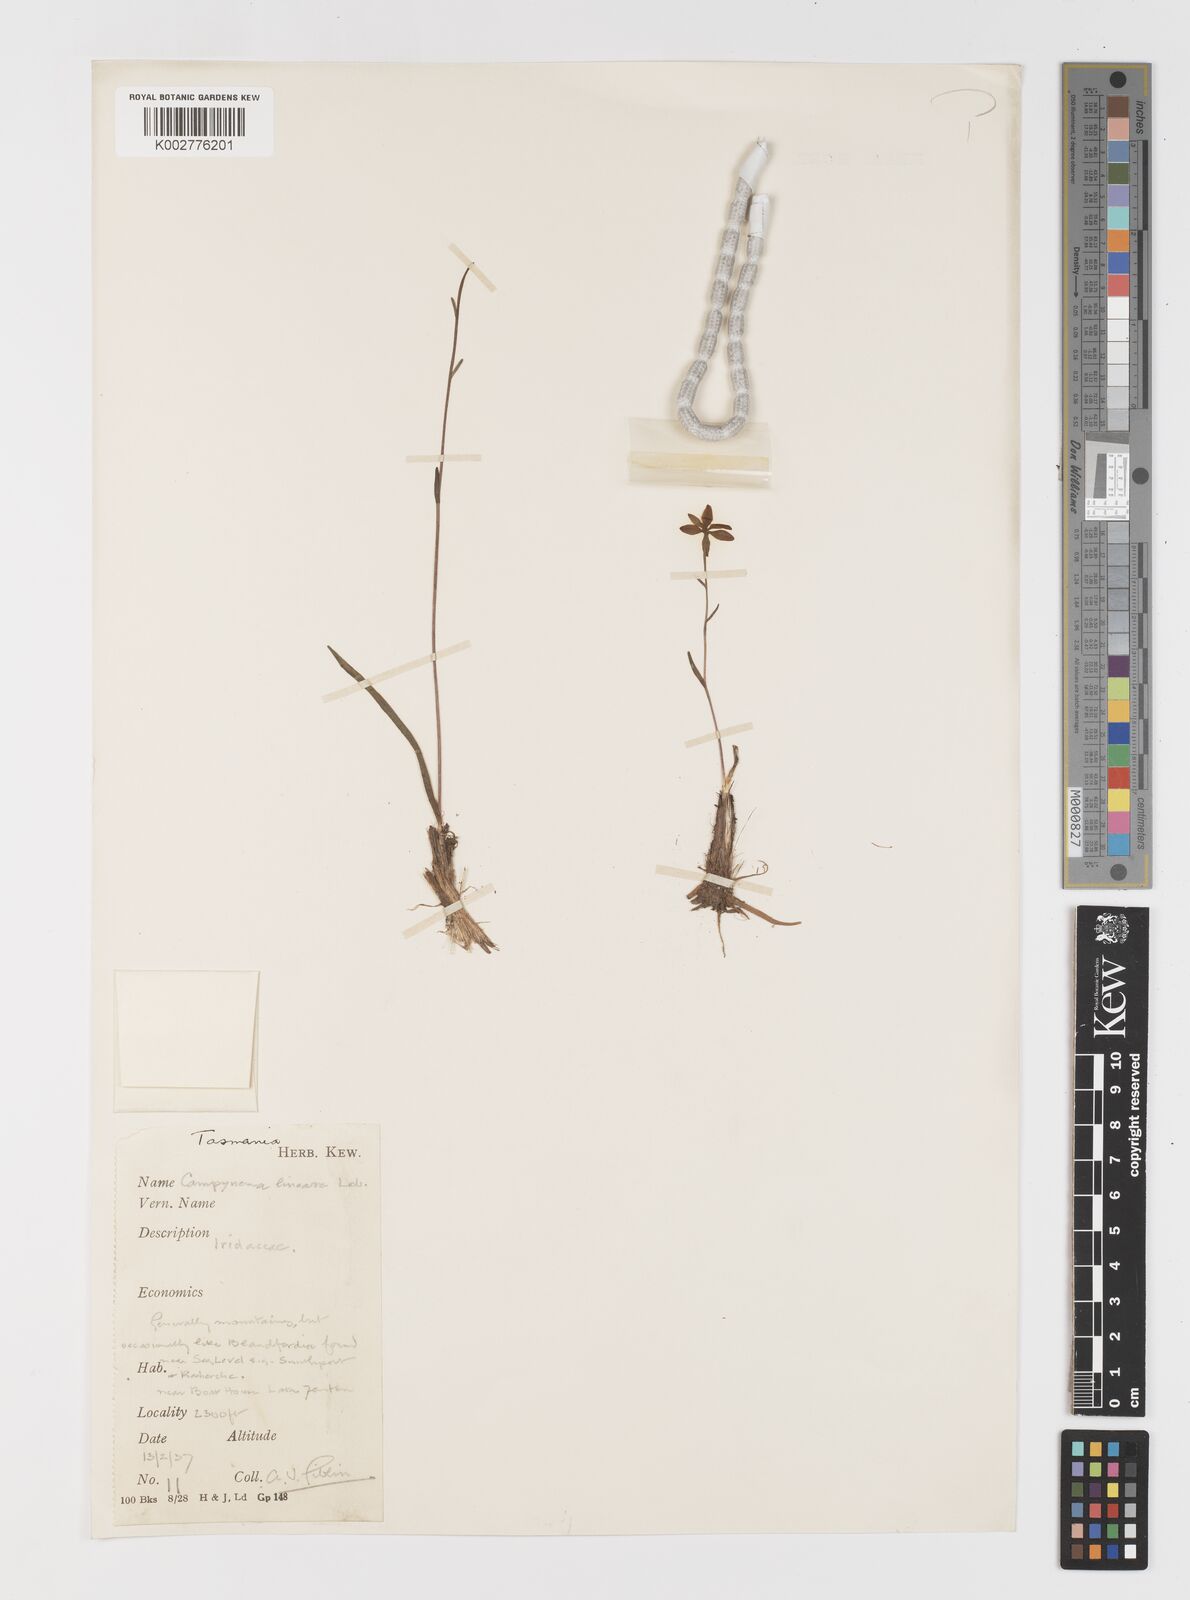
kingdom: Plantae
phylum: Tracheophyta
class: Liliopsida
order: Liliales
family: Campynemataceae
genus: Campynema
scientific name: Campynema lineare
